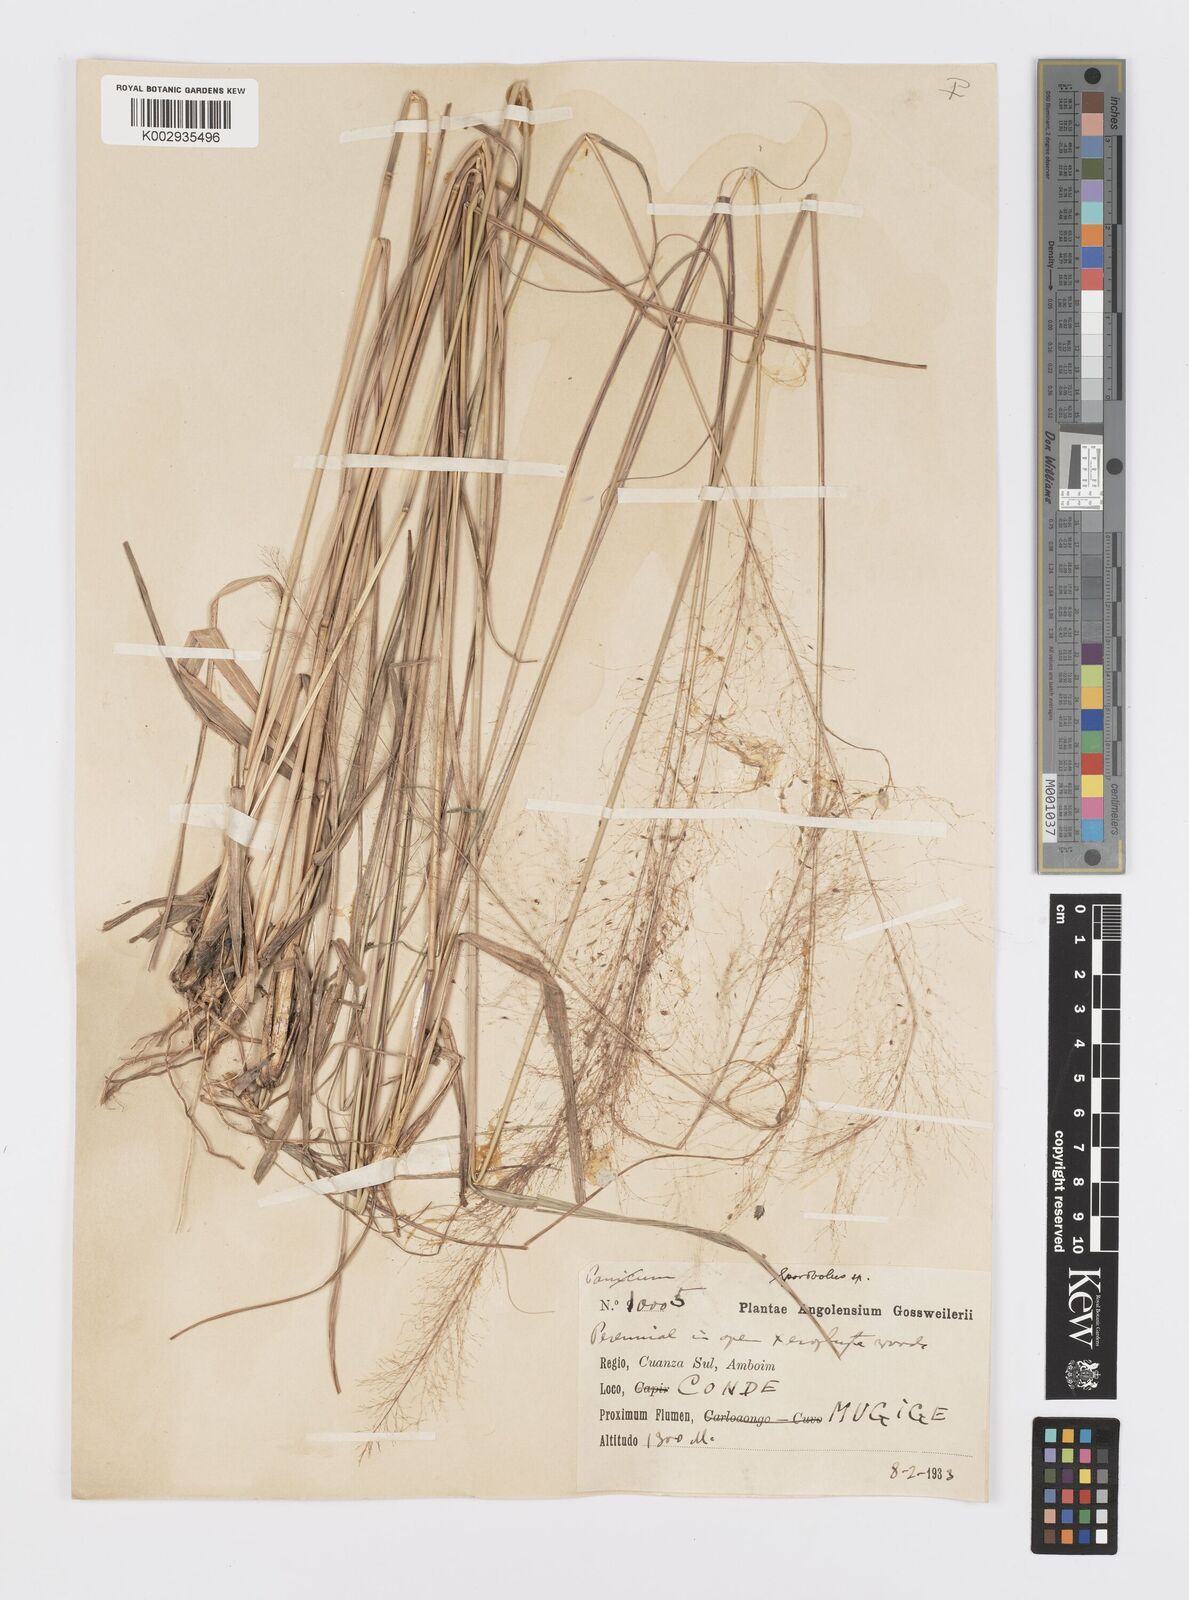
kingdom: Plantae
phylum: Tracheophyta
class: Liliopsida
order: Poales
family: Poaceae
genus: Sporobolus
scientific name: Sporobolus myrianthus
